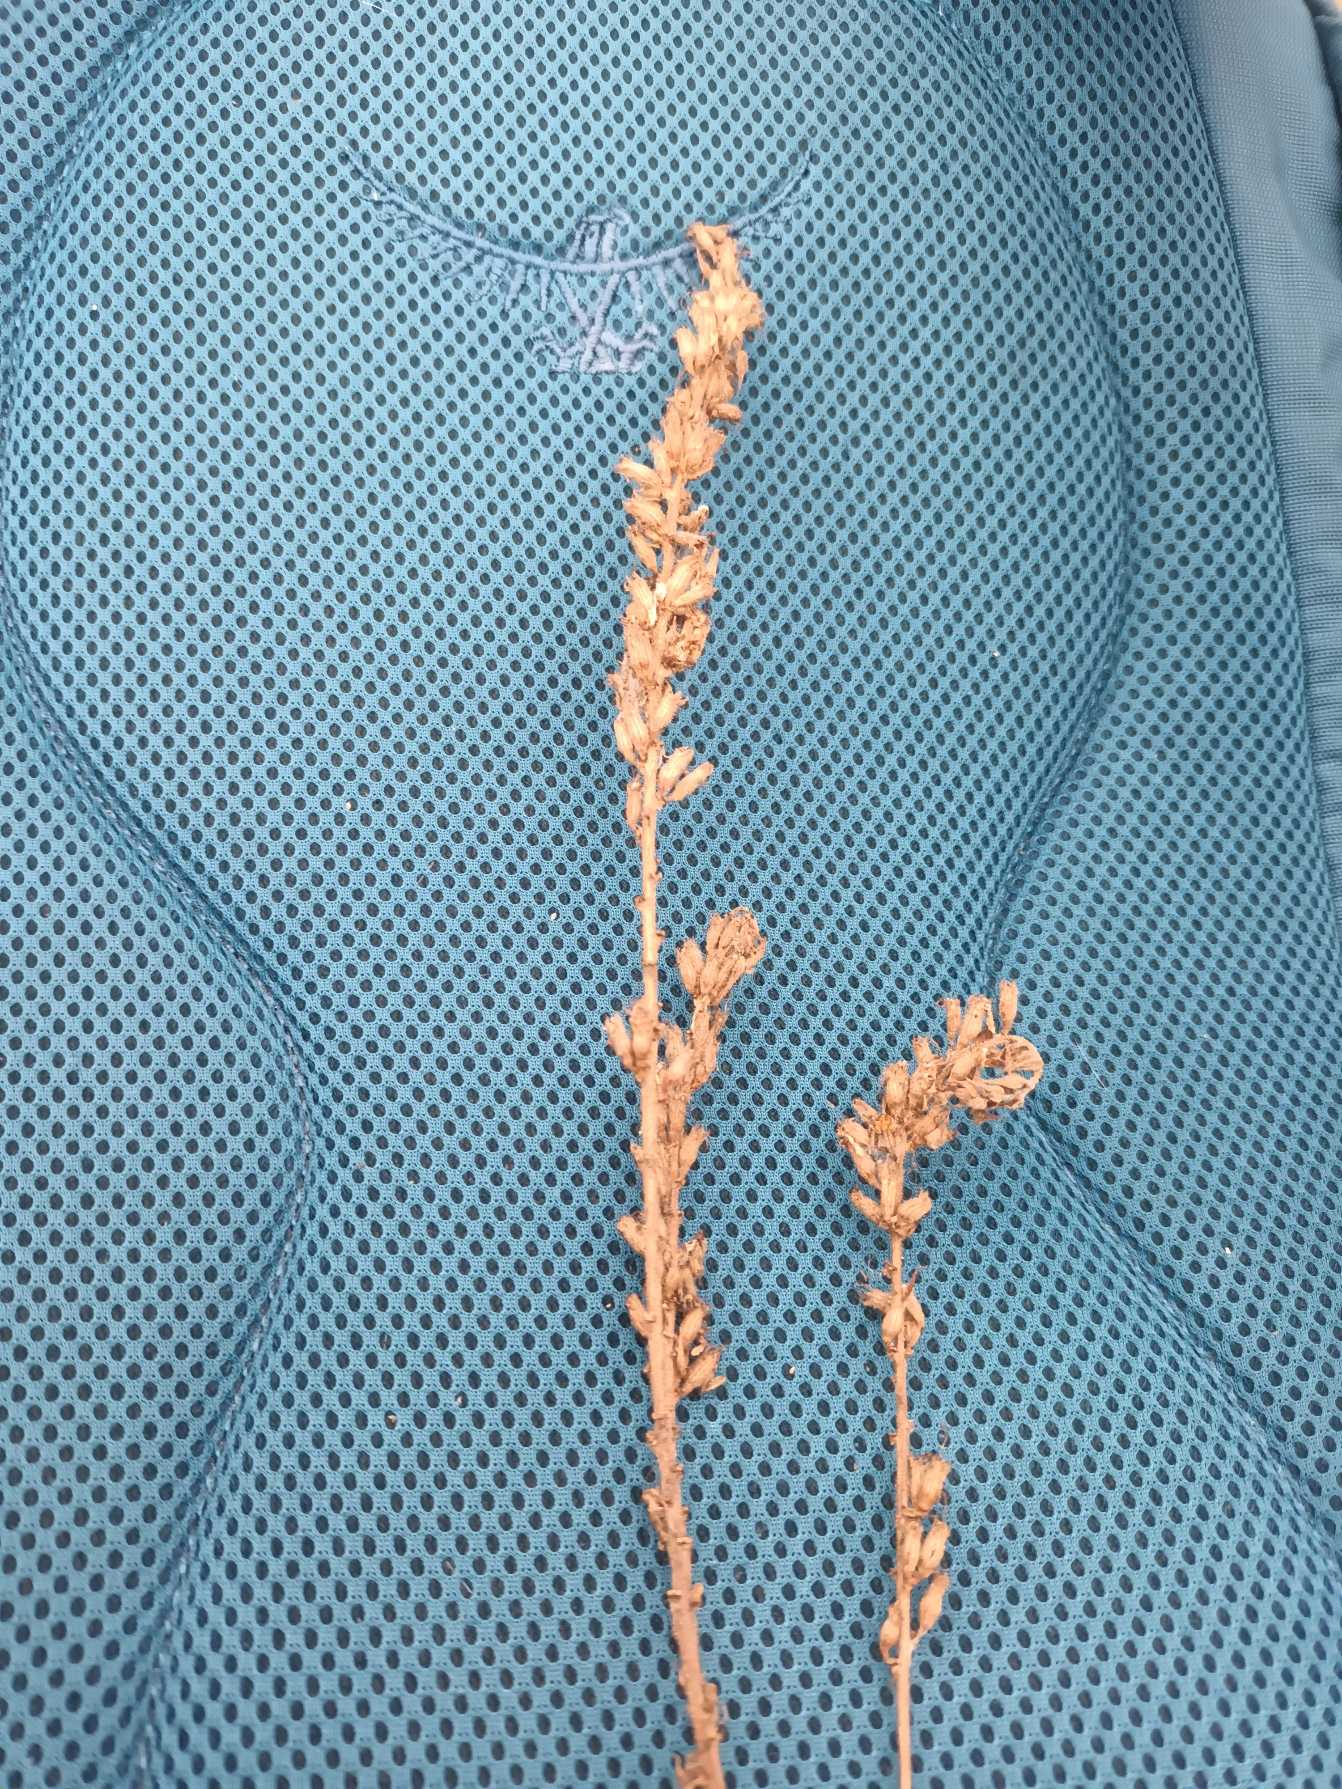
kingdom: Plantae
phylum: Tracheophyta
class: Magnoliopsida
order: Myrtales
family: Lythraceae
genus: Lythrum
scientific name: Lythrum salicaria
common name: Kattehale
